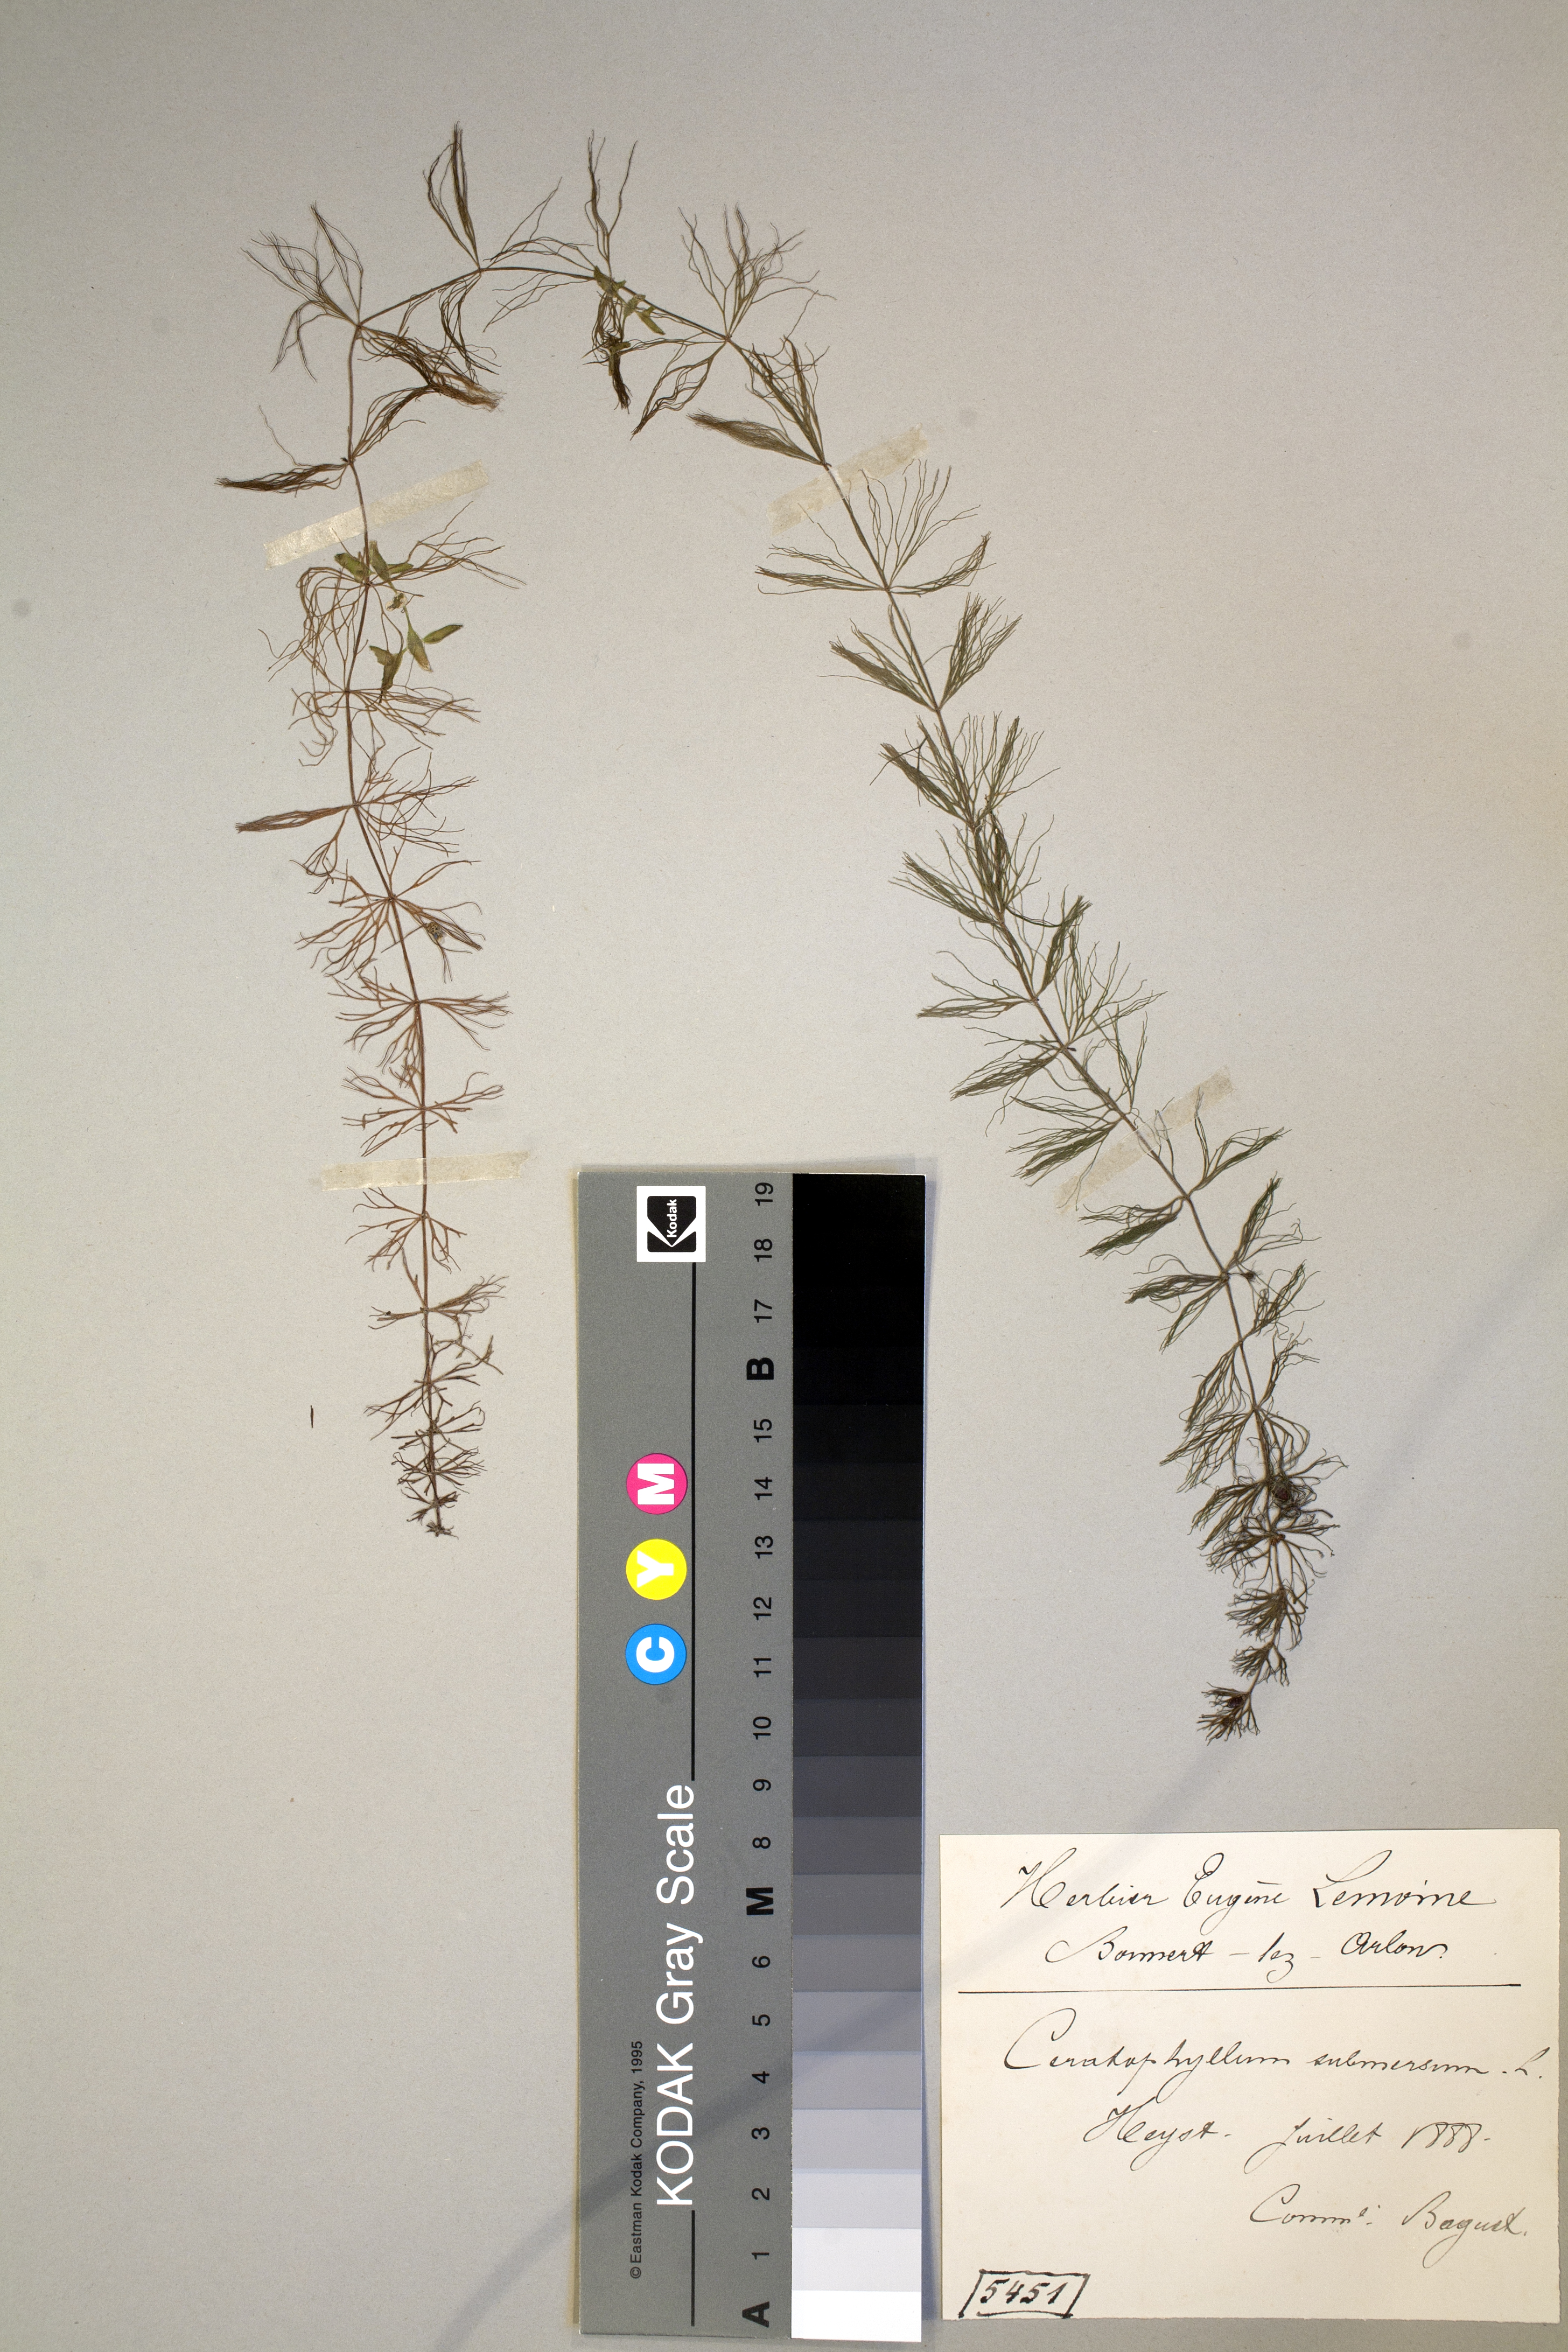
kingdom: Plantae
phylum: Tracheophyta
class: Magnoliopsida
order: Ceratophyllales
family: Ceratophyllaceae
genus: Ceratophyllum
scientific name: Ceratophyllum submersum
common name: Soft hornwort
